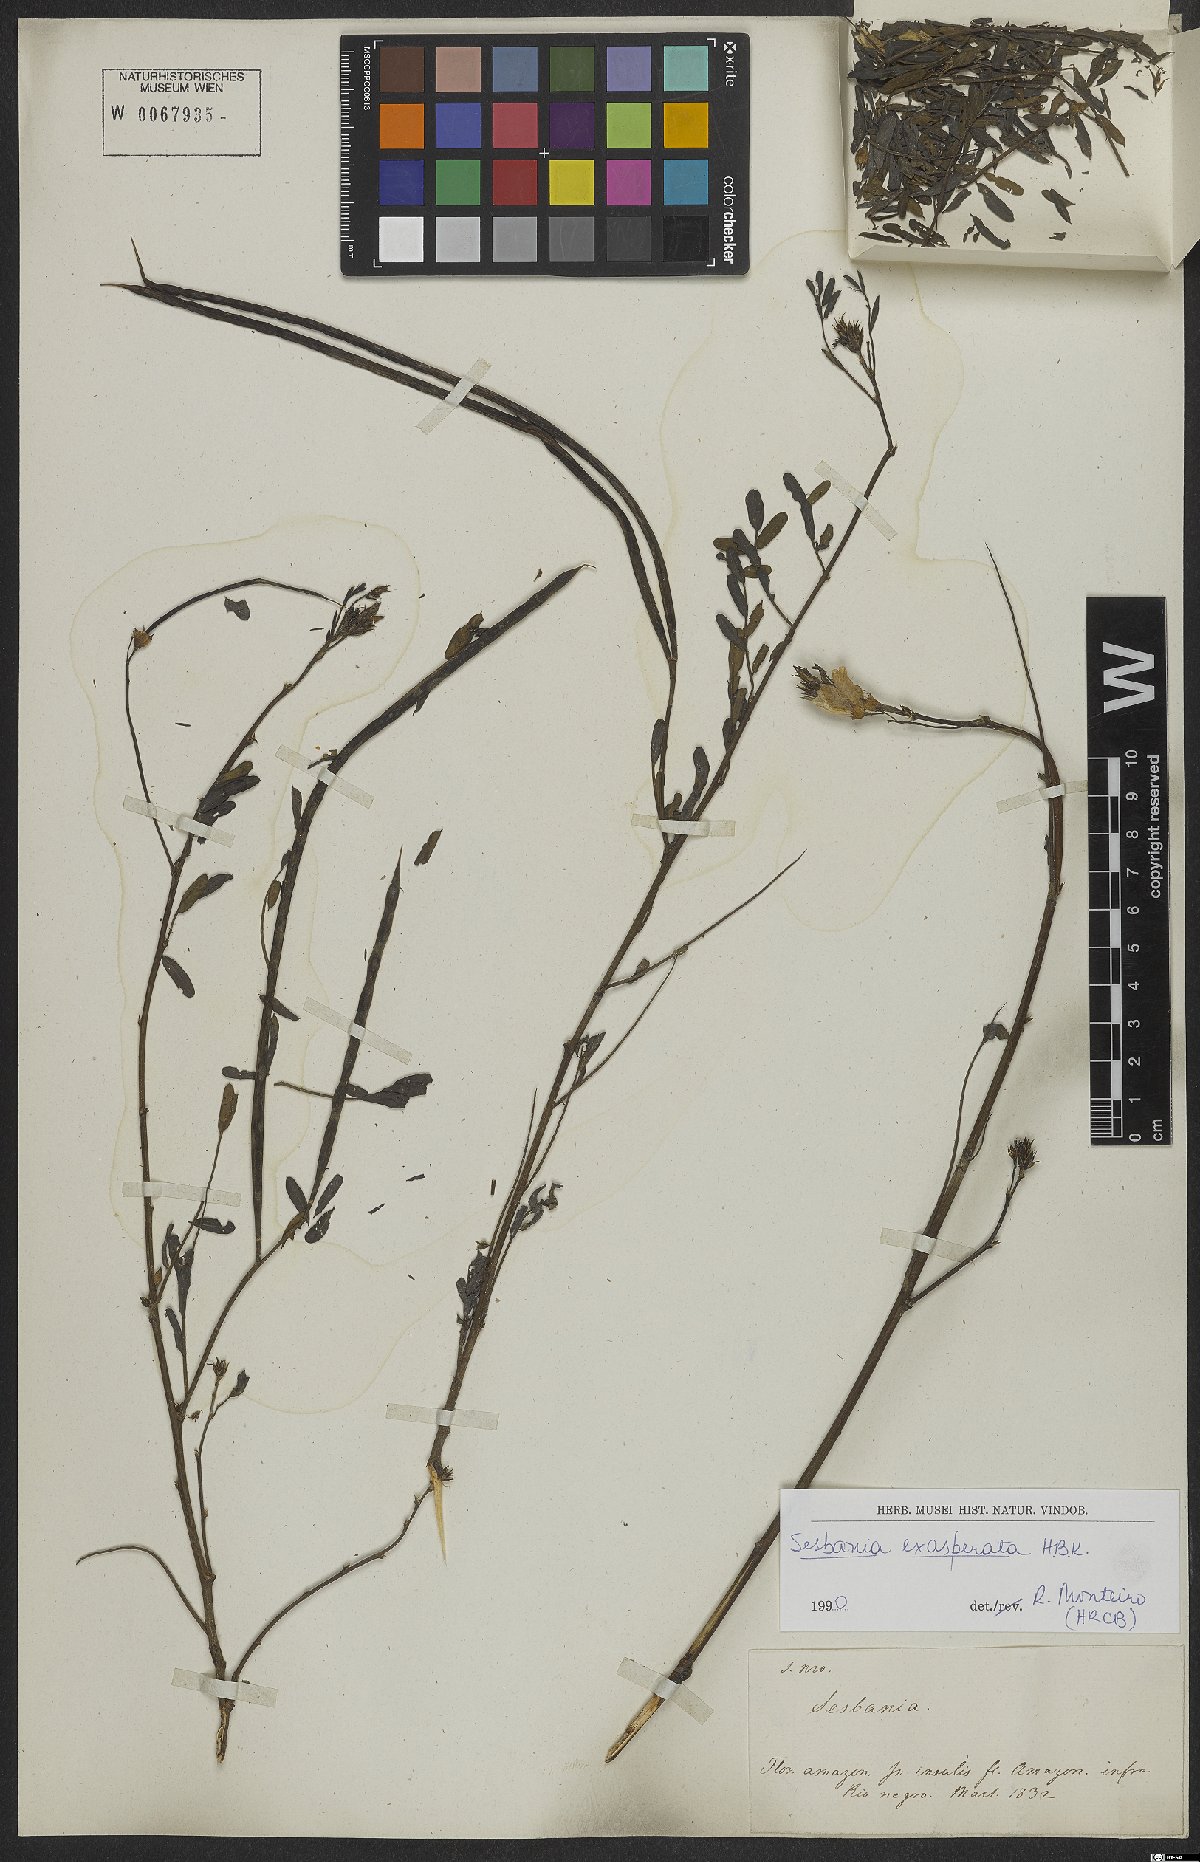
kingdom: Plantae
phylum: Tracheophyta
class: Magnoliopsida
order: Fabales
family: Fabaceae
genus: Sesbania
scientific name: Sesbania exasperata
